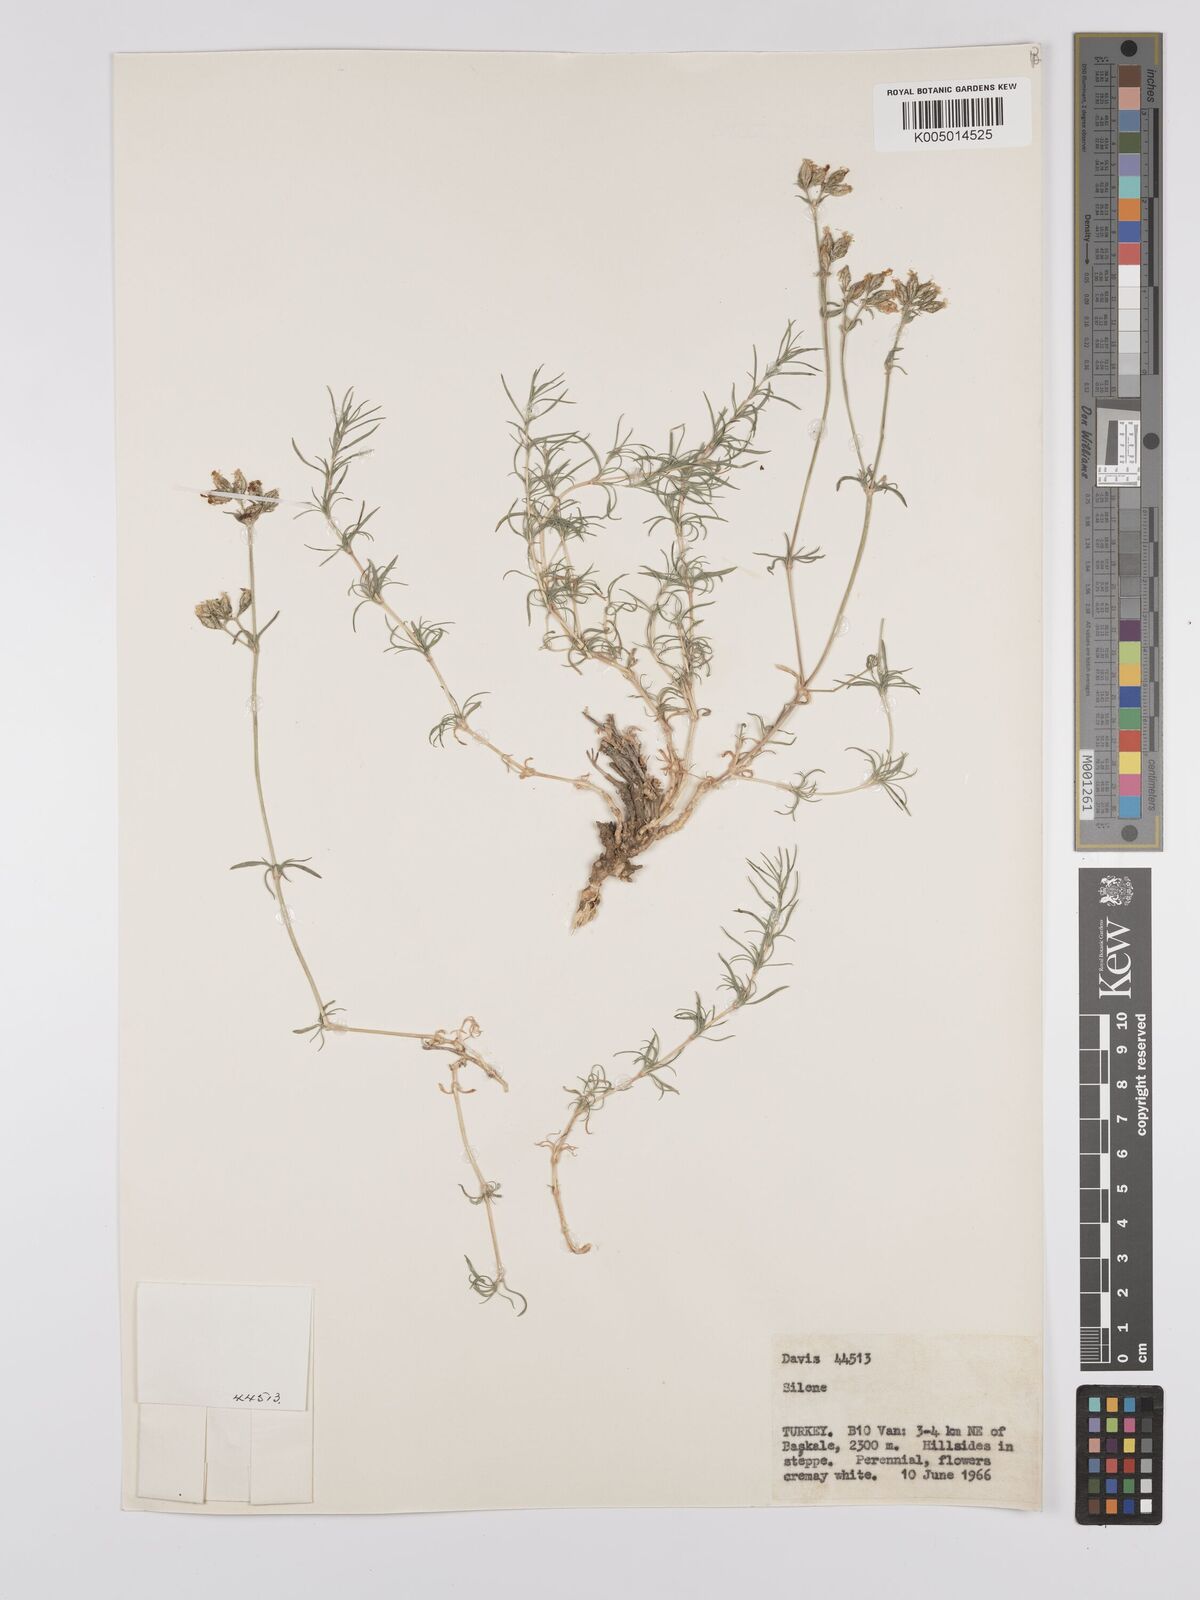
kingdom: Plantae
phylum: Tracheophyta
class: Magnoliopsida
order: Caryophyllales
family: Caryophyllaceae
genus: Silene
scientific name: Silene
